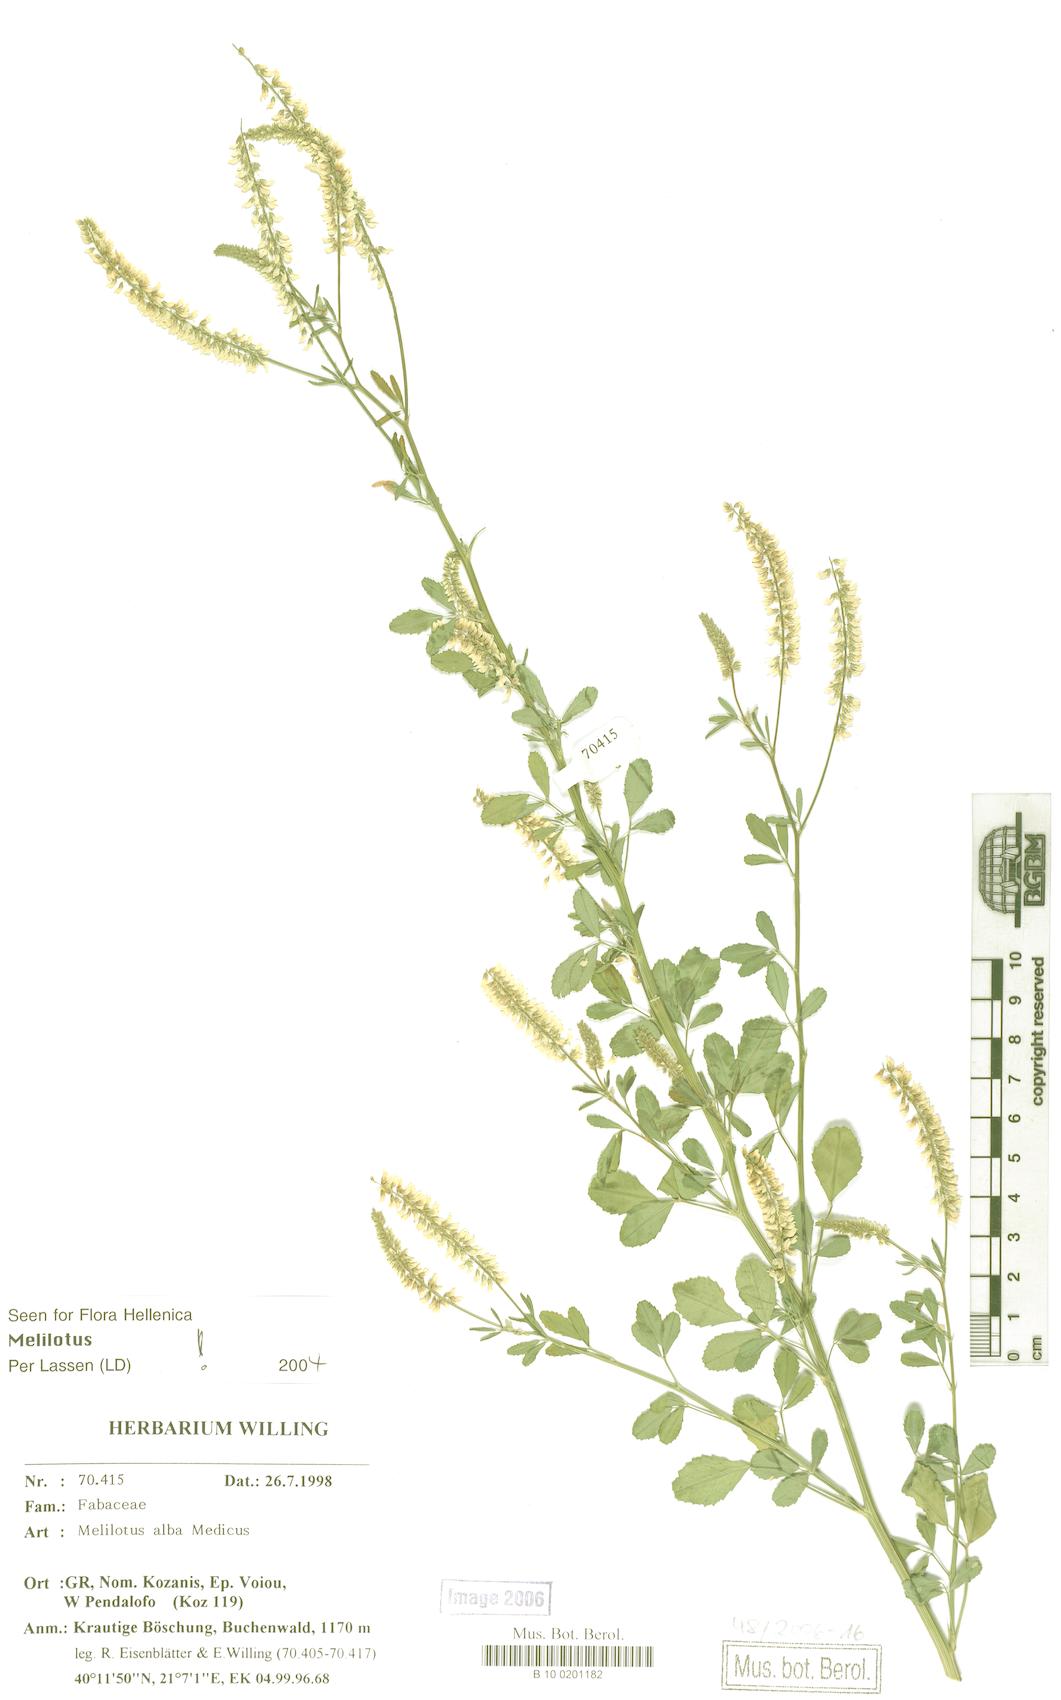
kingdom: Plantae
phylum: Tracheophyta
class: Magnoliopsida
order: Fabales
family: Fabaceae
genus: Melilotus
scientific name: Melilotus albus
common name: White melilot
